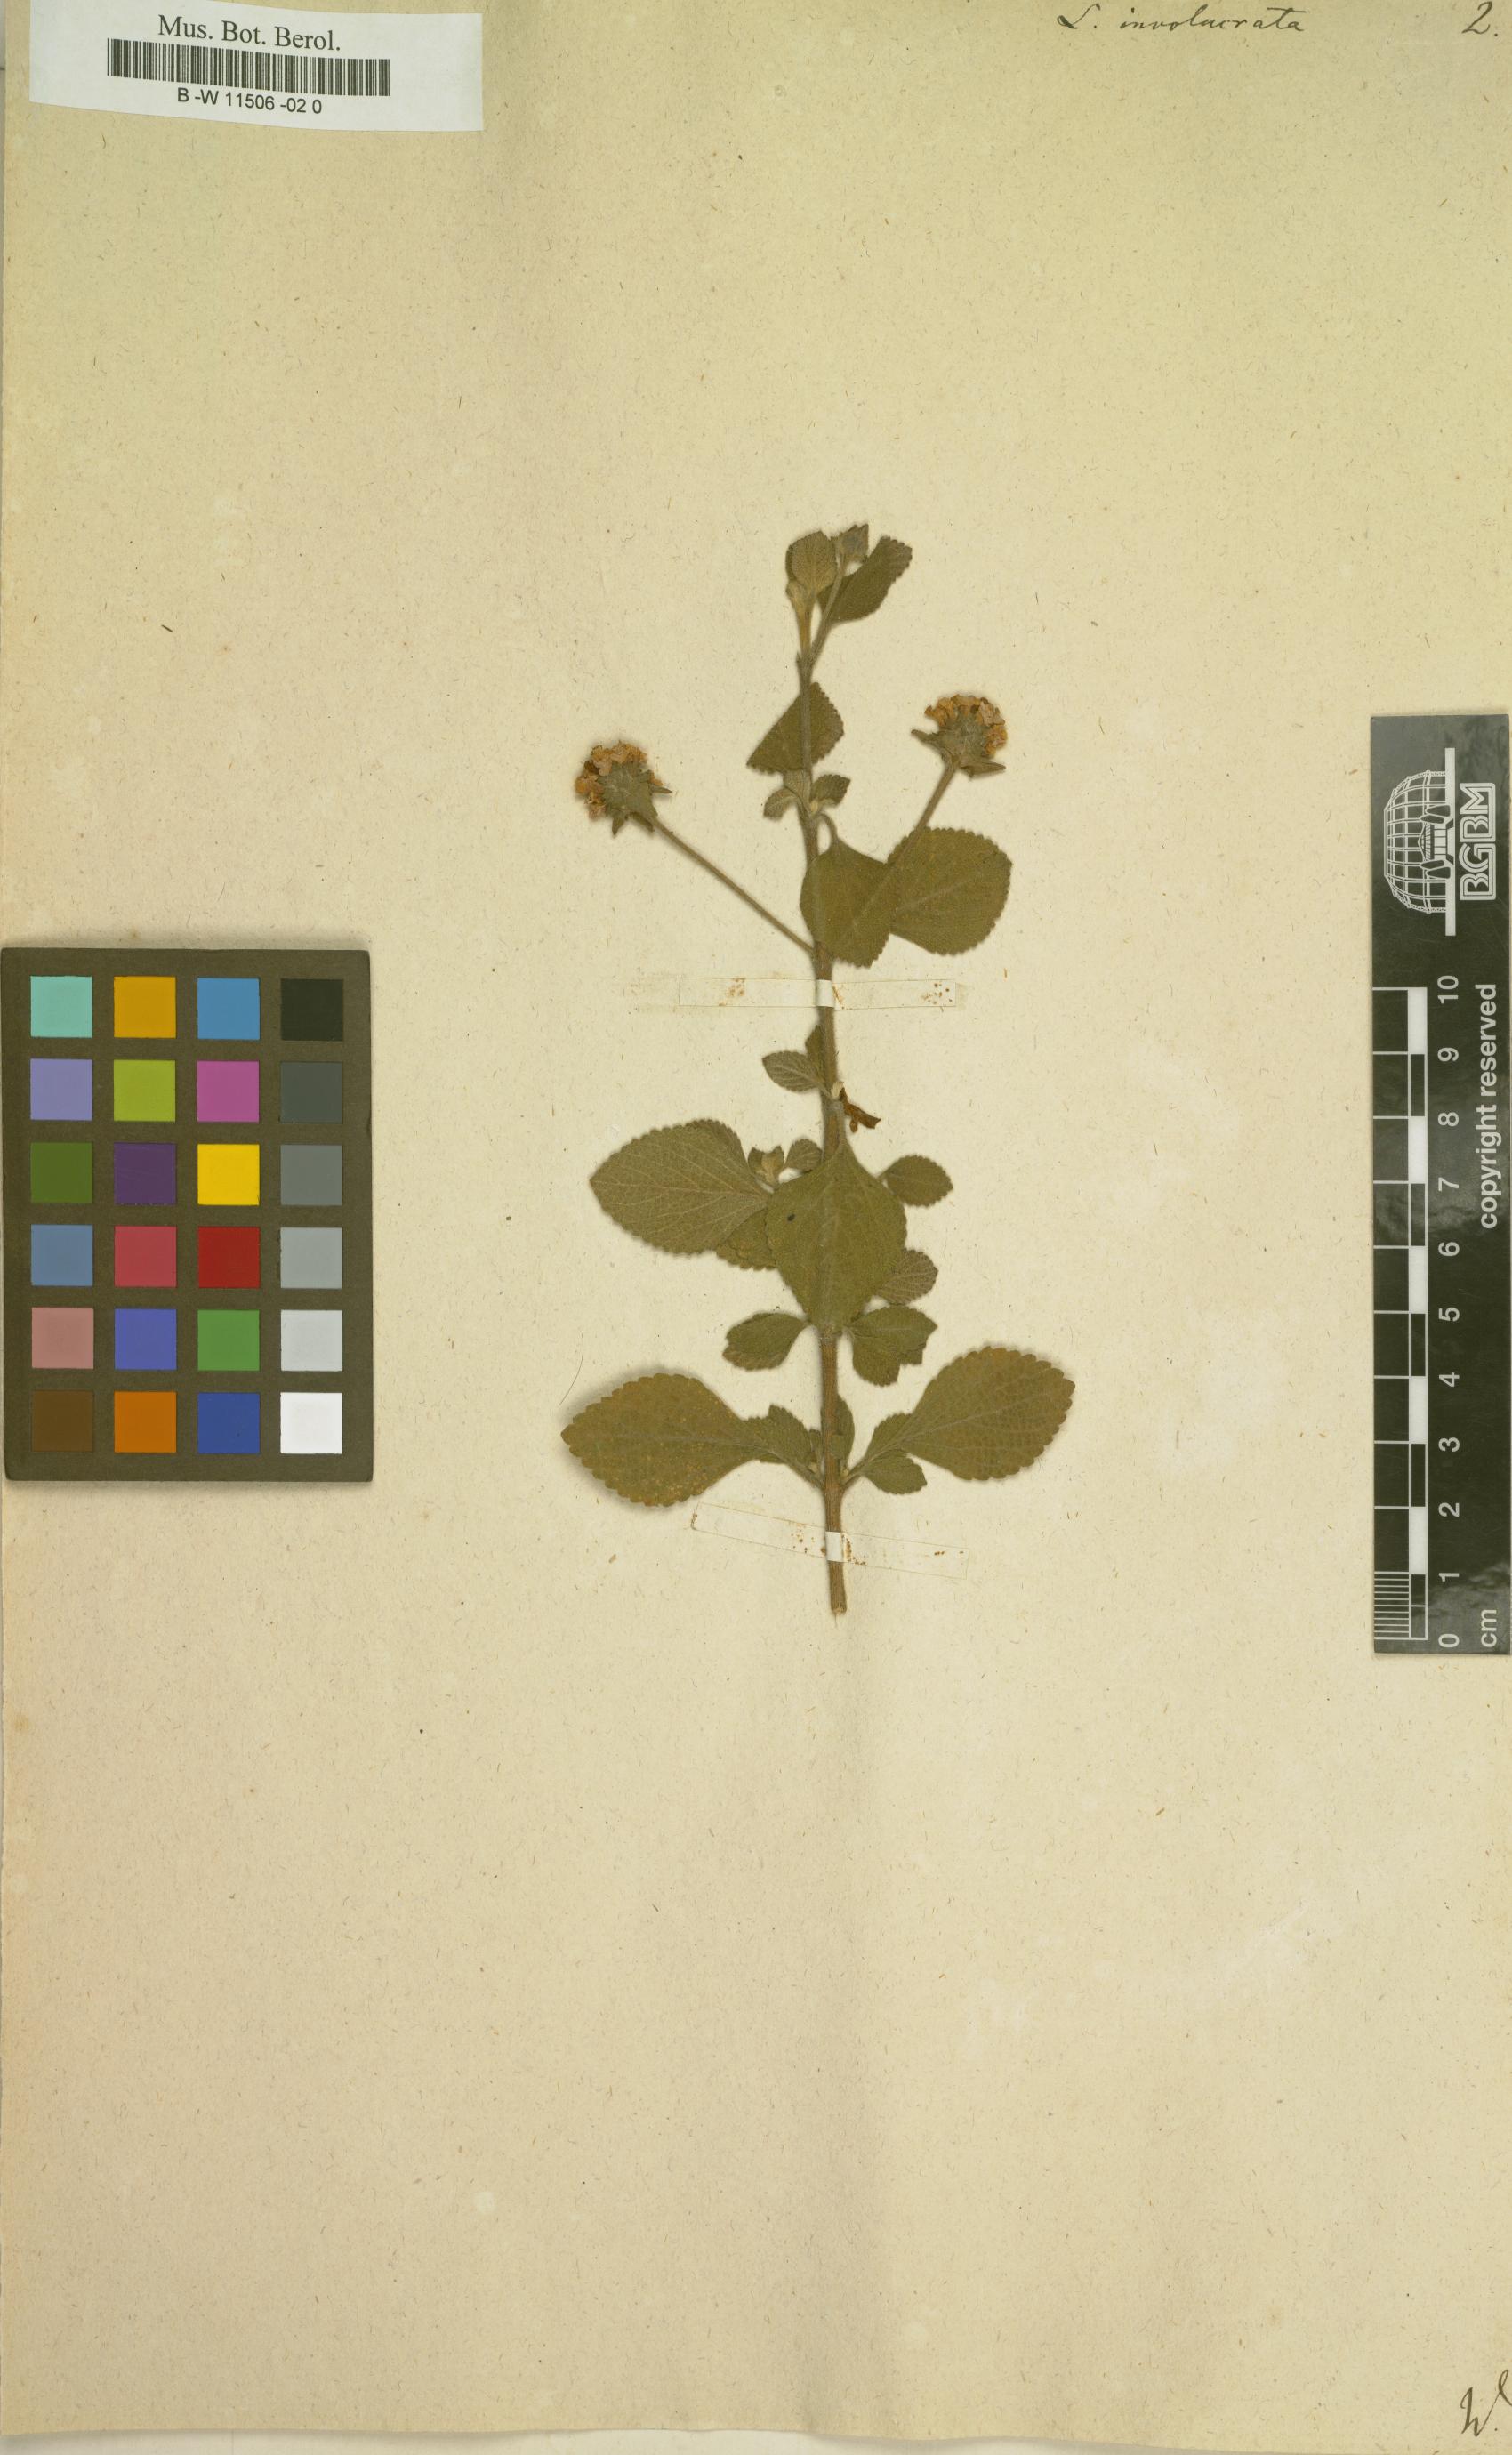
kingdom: Plantae
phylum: Tracheophyta
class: Magnoliopsida
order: Lamiales
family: Verbenaceae
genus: Lantana
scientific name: Lantana involucrata
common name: Black sage
